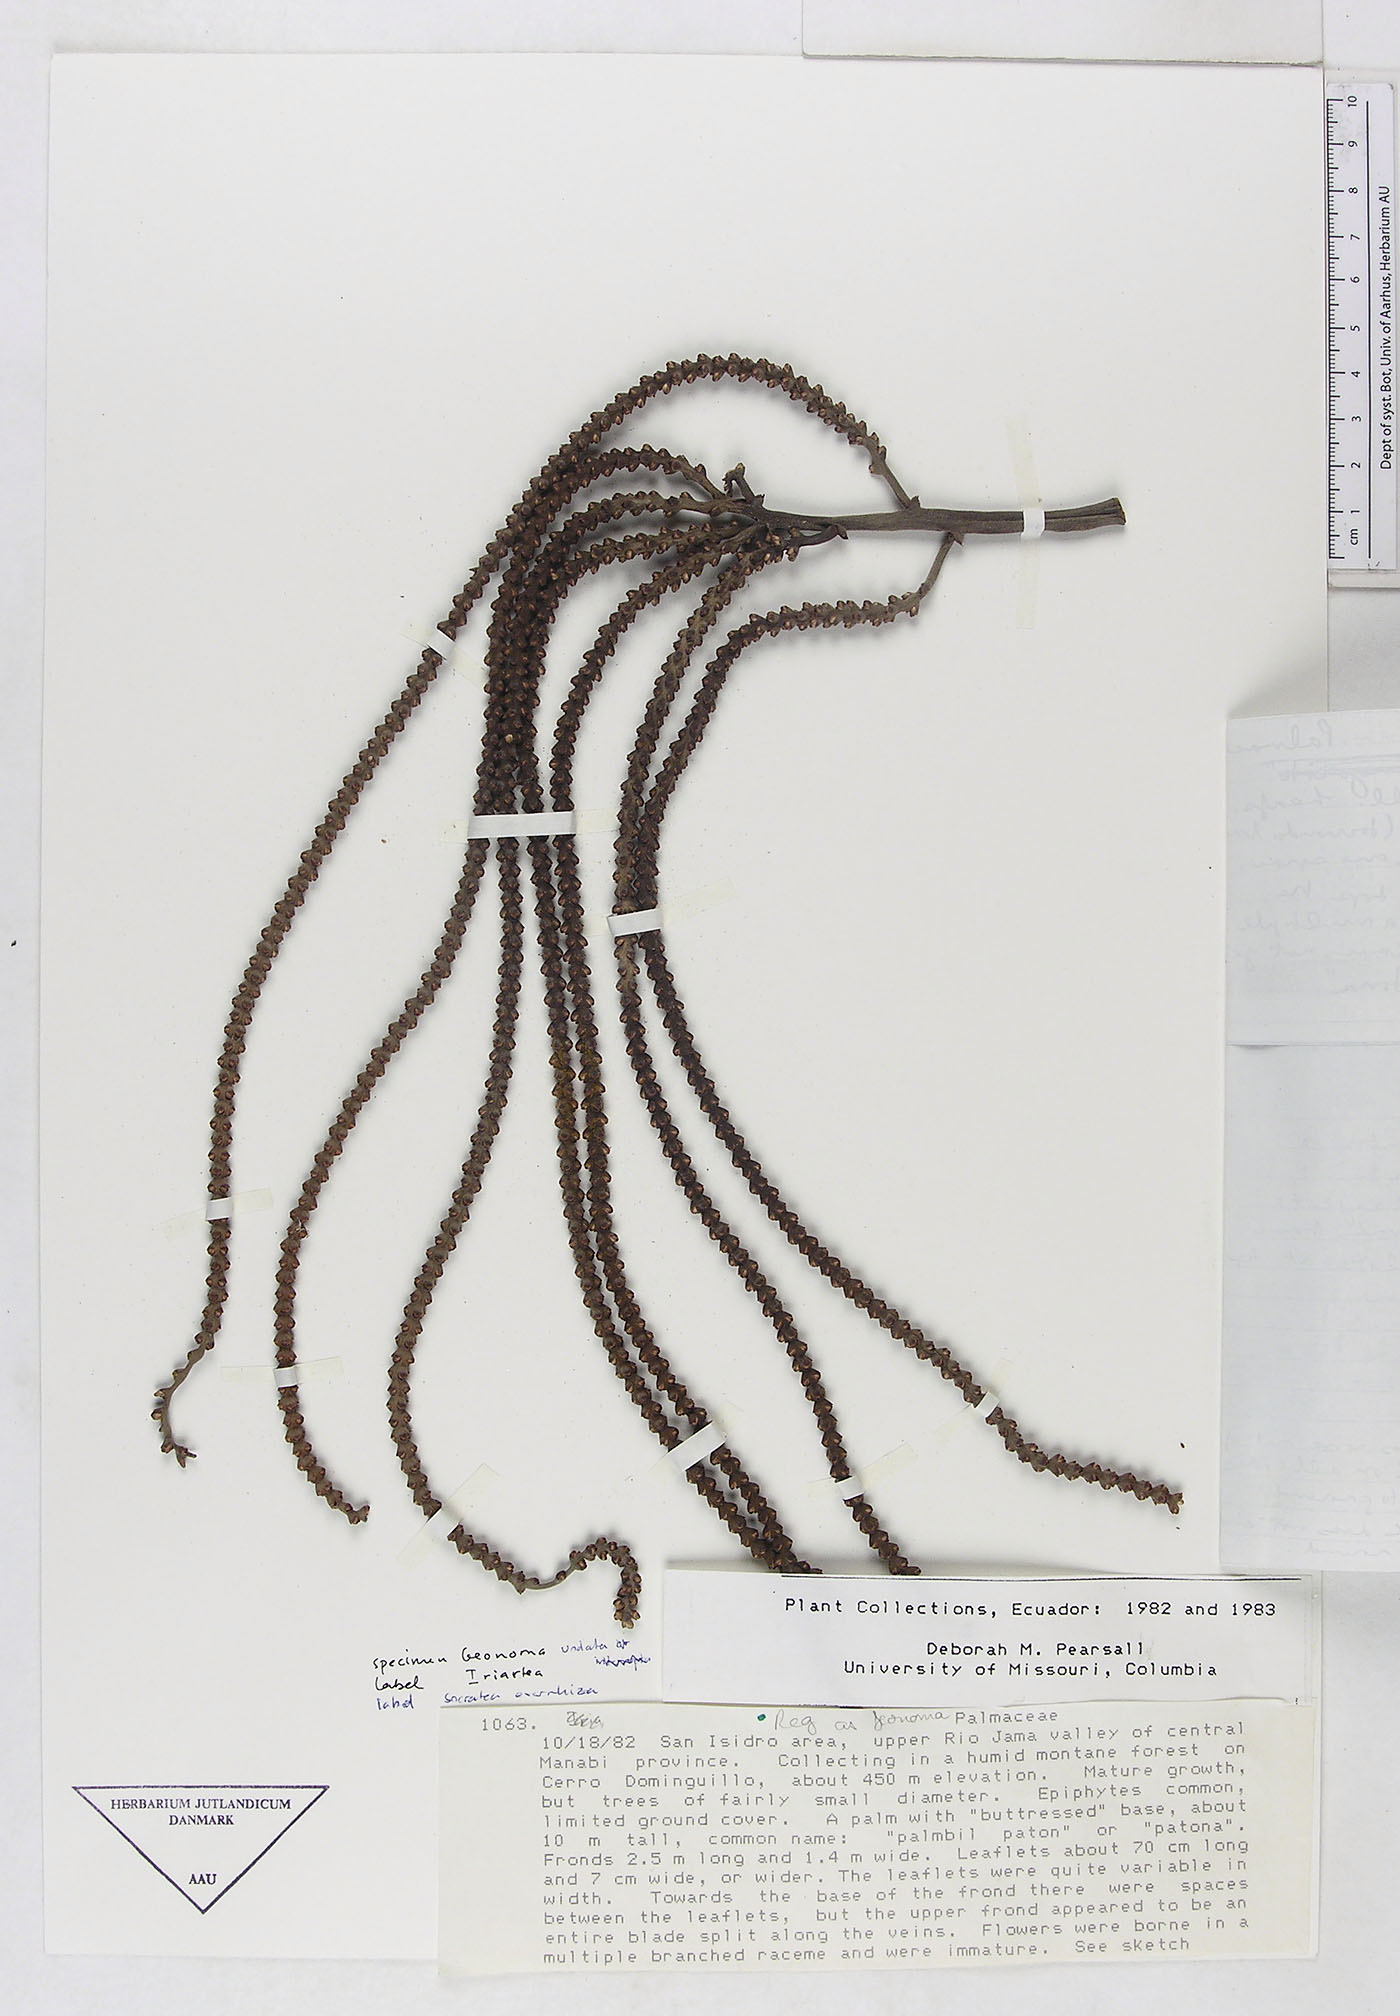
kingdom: Plantae
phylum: Tracheophyta
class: Liliopsida
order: Arecales
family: Arecaceae
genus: Geonoma
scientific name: Geonoma
